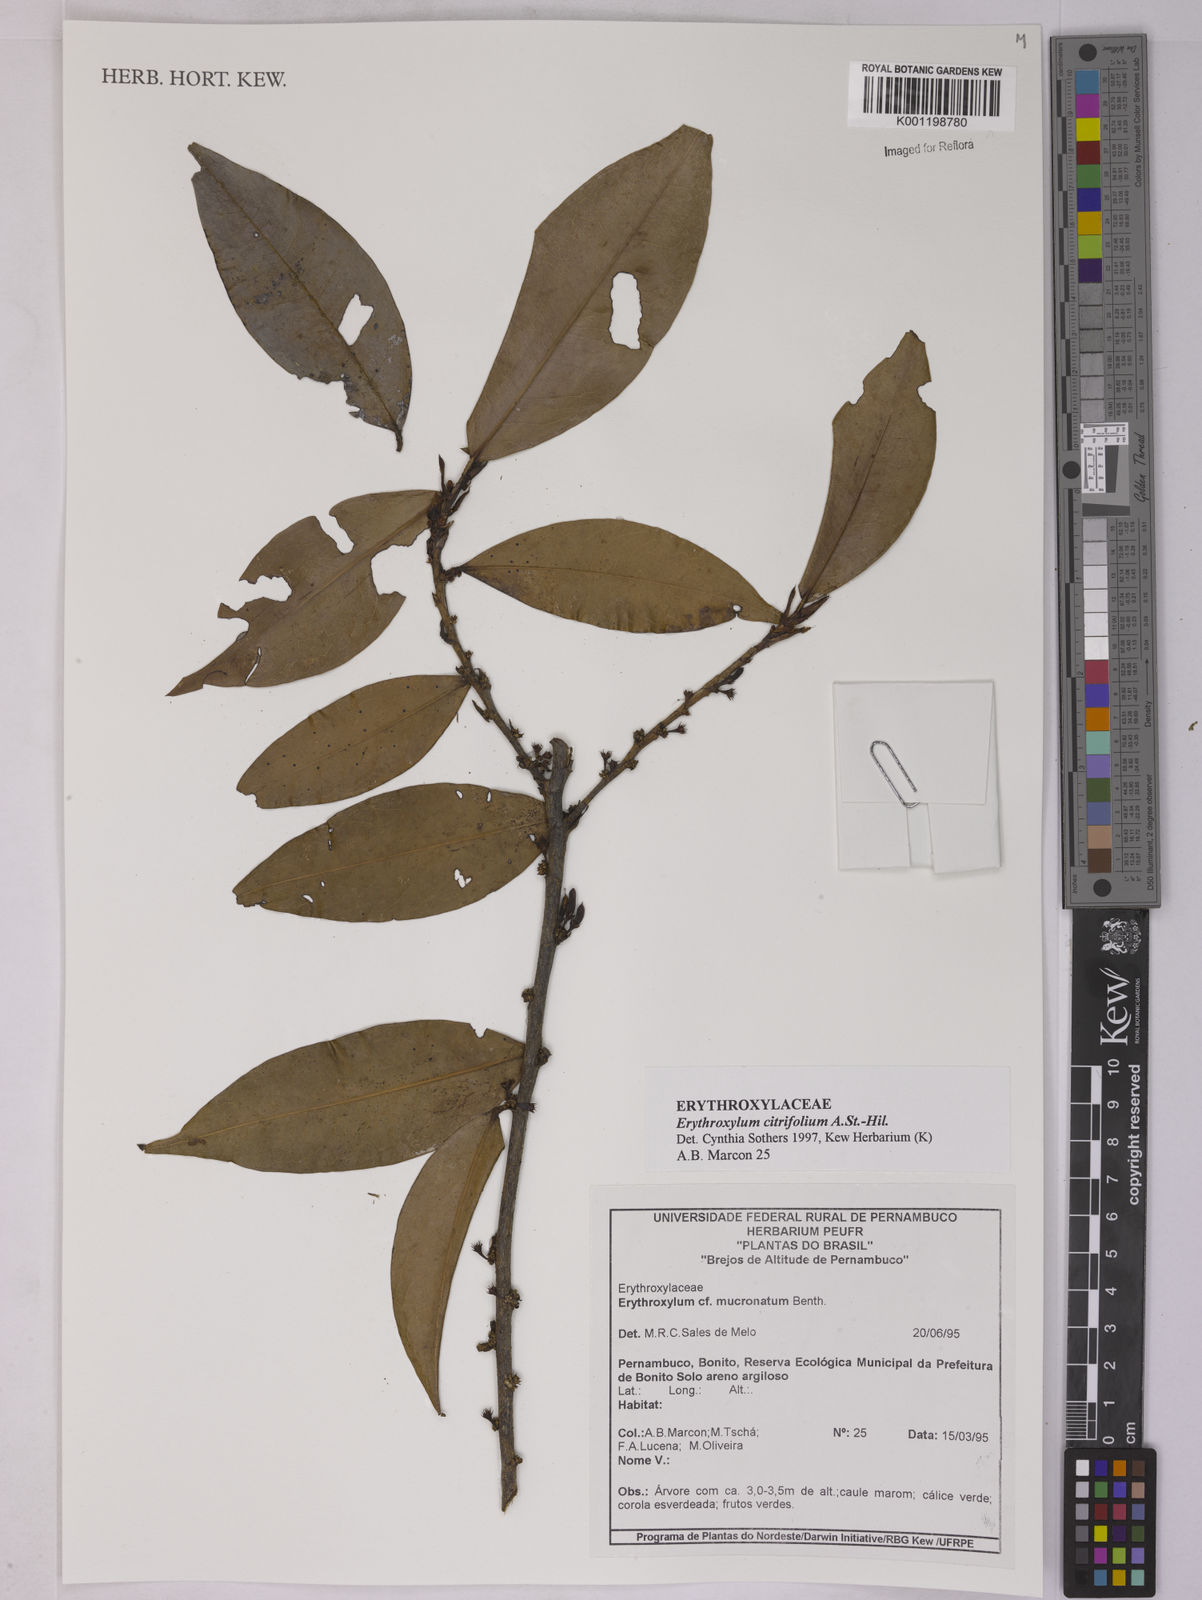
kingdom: Plantae
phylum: Tracheophyta
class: Magnoliopsida
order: Malpighiales
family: Erythroxylaceae
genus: Erythroxylum
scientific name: Erythroxylum citrifolium
